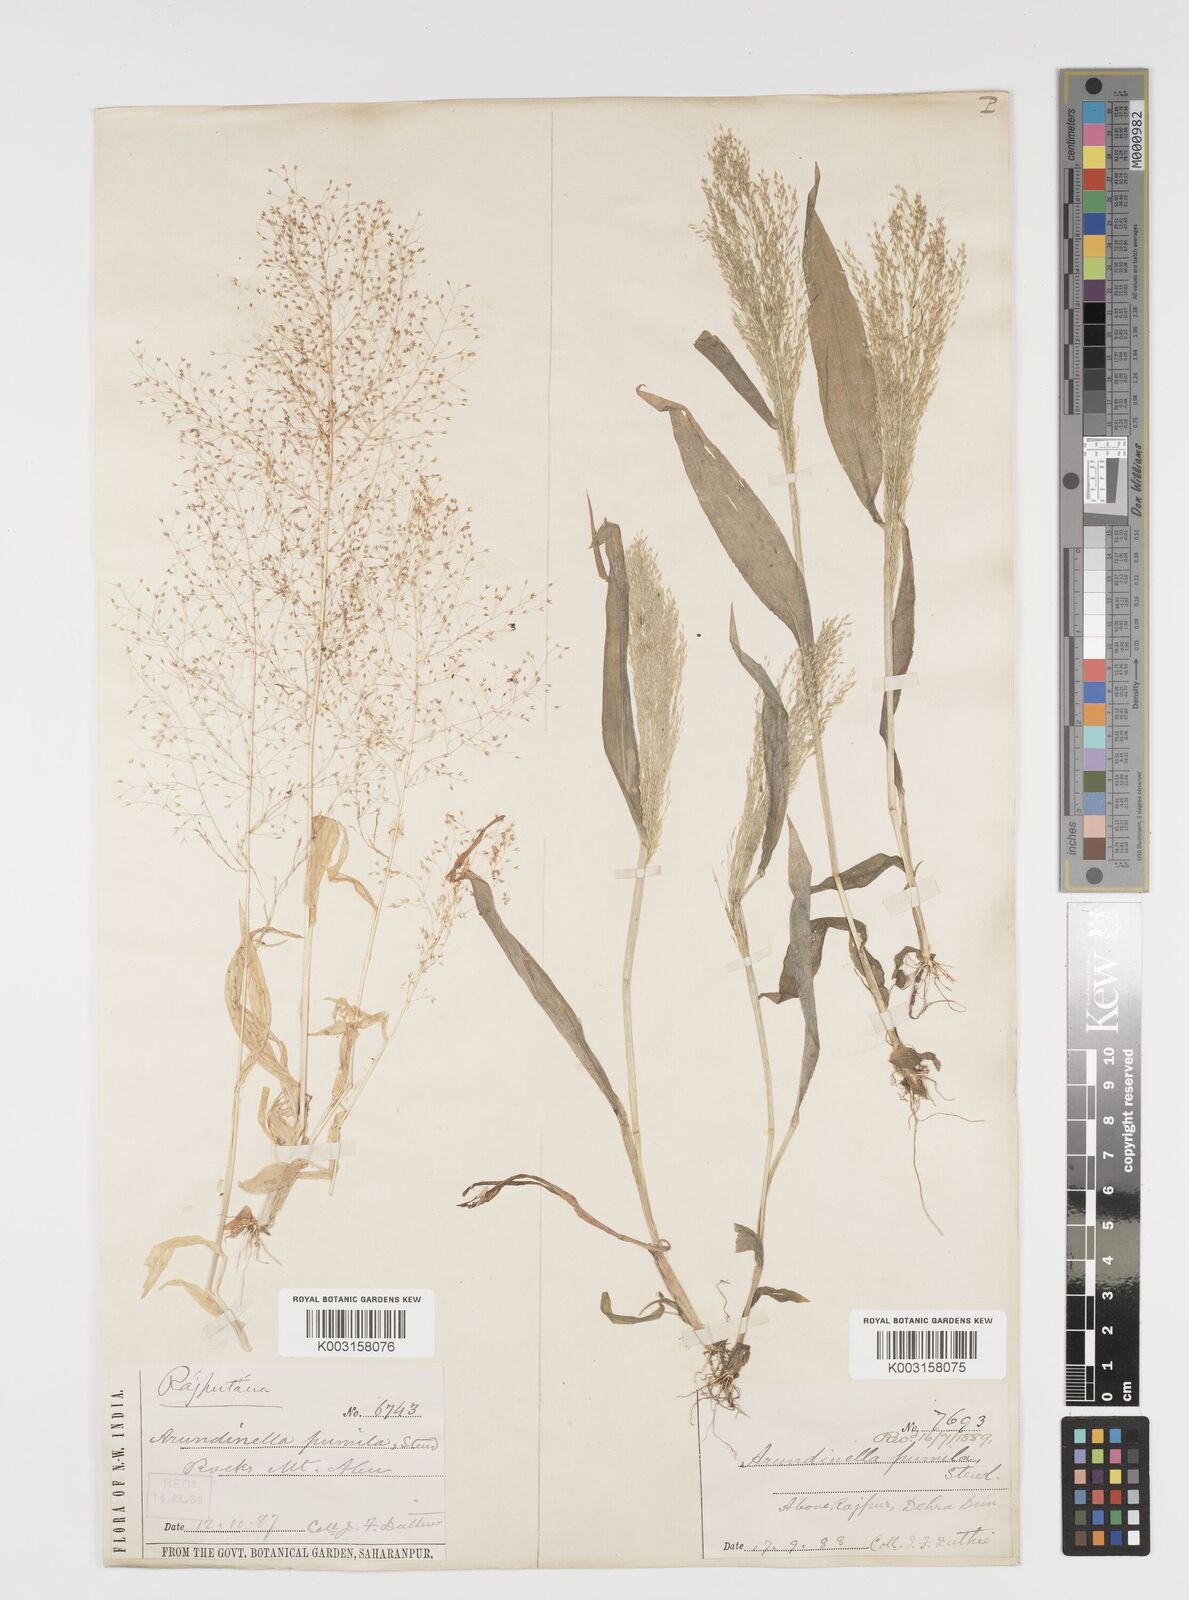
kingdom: Plantae
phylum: Tracheophyta
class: Liliopsida
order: Poales
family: Poaceae
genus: Arundinella
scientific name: Arundinella pumila
